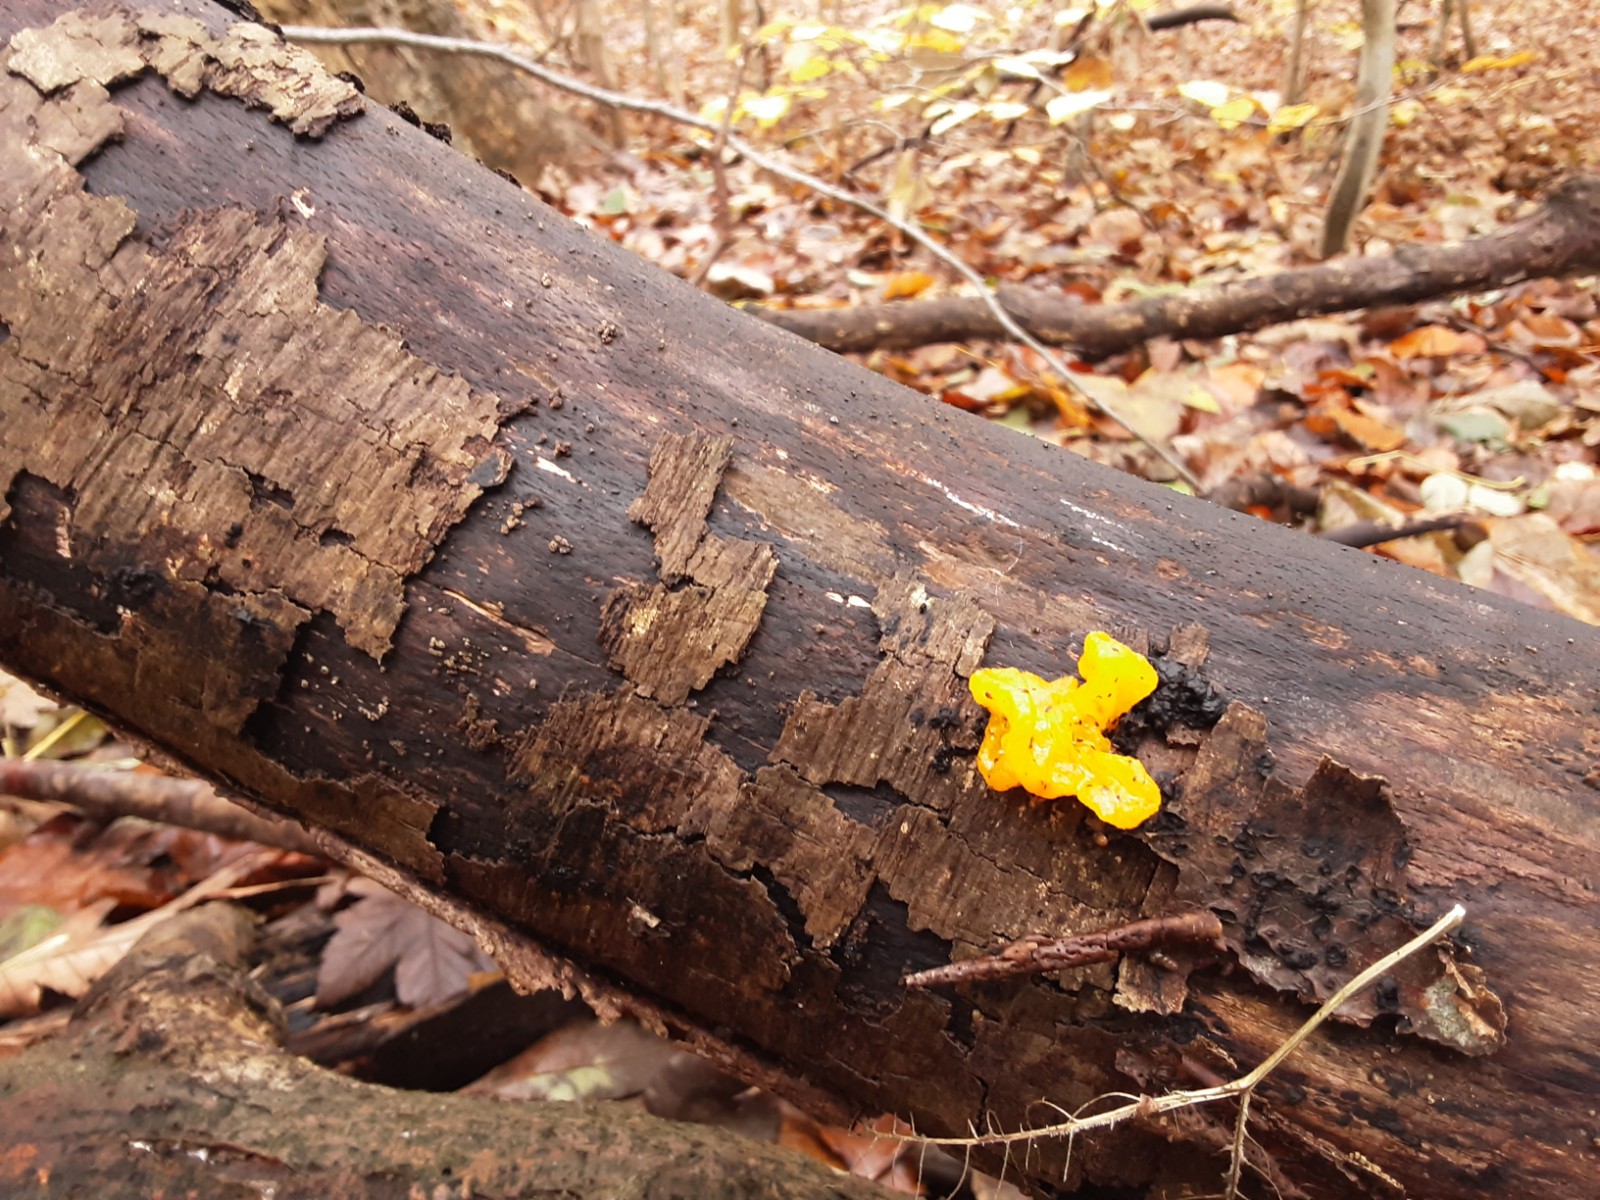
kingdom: Fungi
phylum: Basidiomycota
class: Tremellomycetes
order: Tremellales
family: Tremellaceae
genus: Tremella
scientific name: Tremella mesenterica
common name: gul bævresvamp
